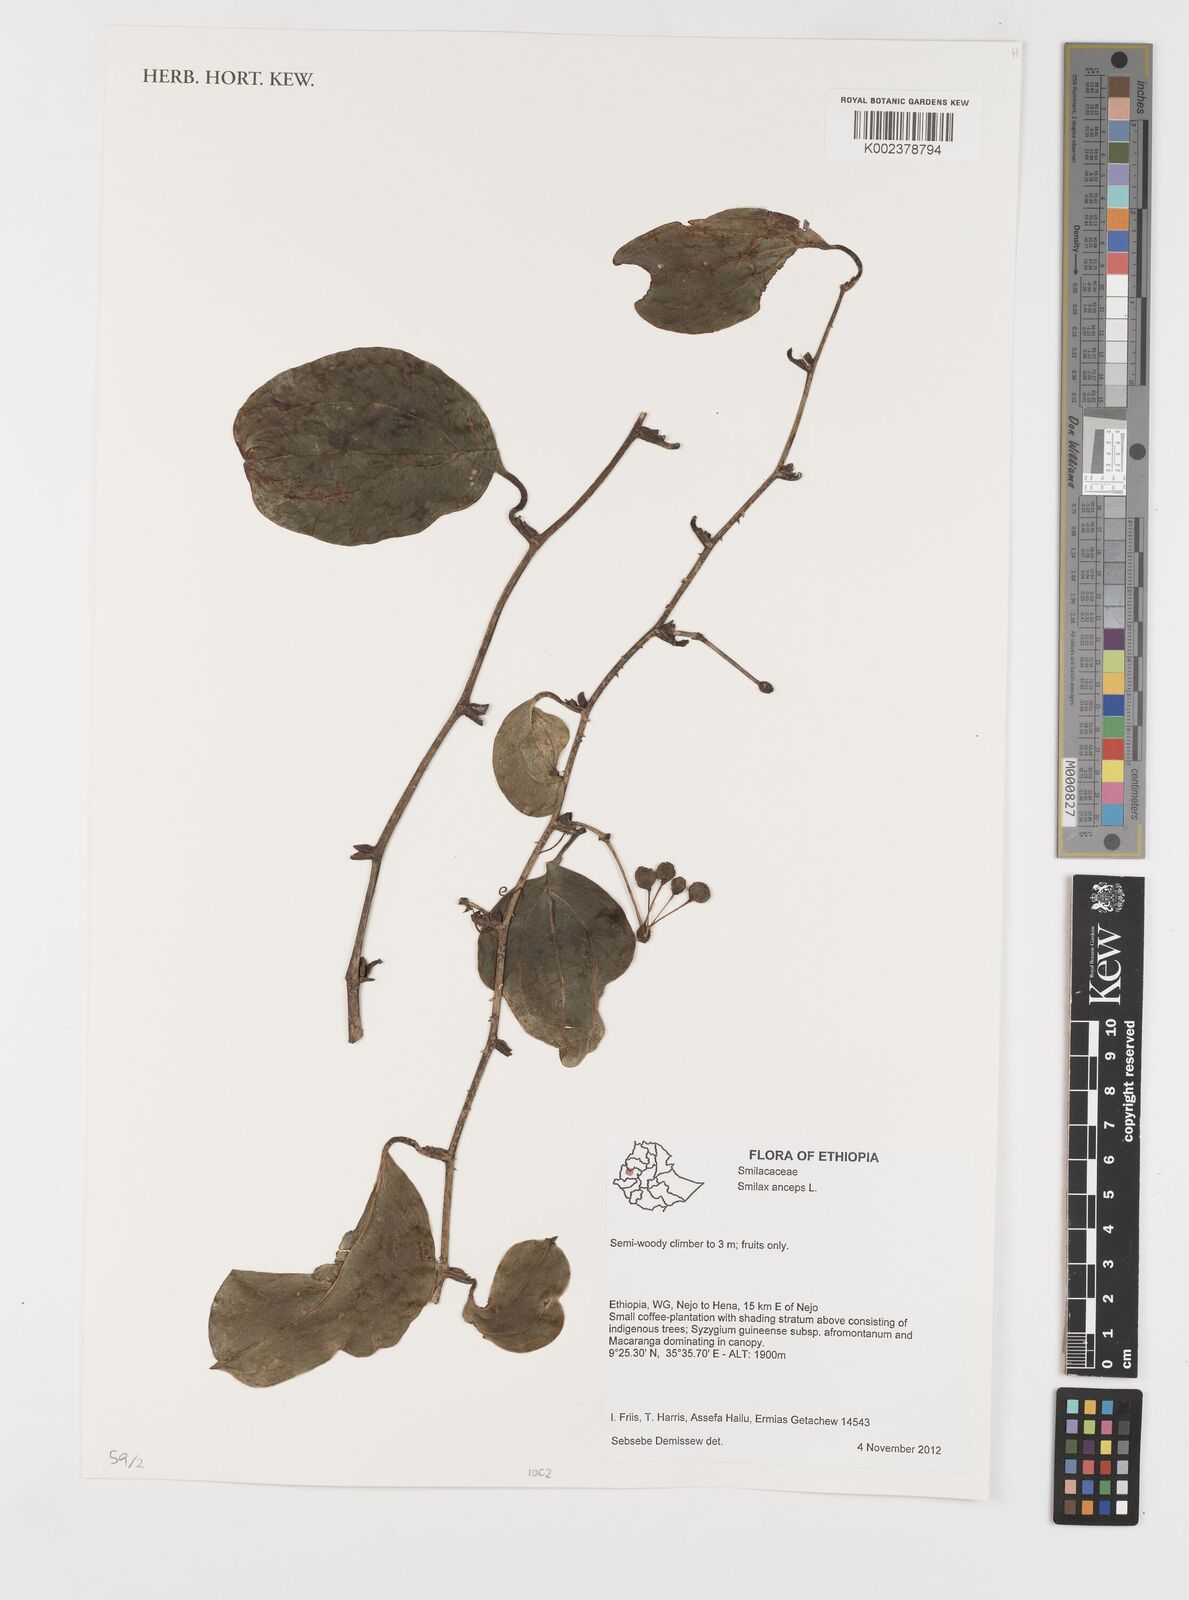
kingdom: Plantae
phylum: Tracheophyta
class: Liliopsida
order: Liliales
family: Smilacaceae
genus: Smilax
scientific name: Smilax anceps
